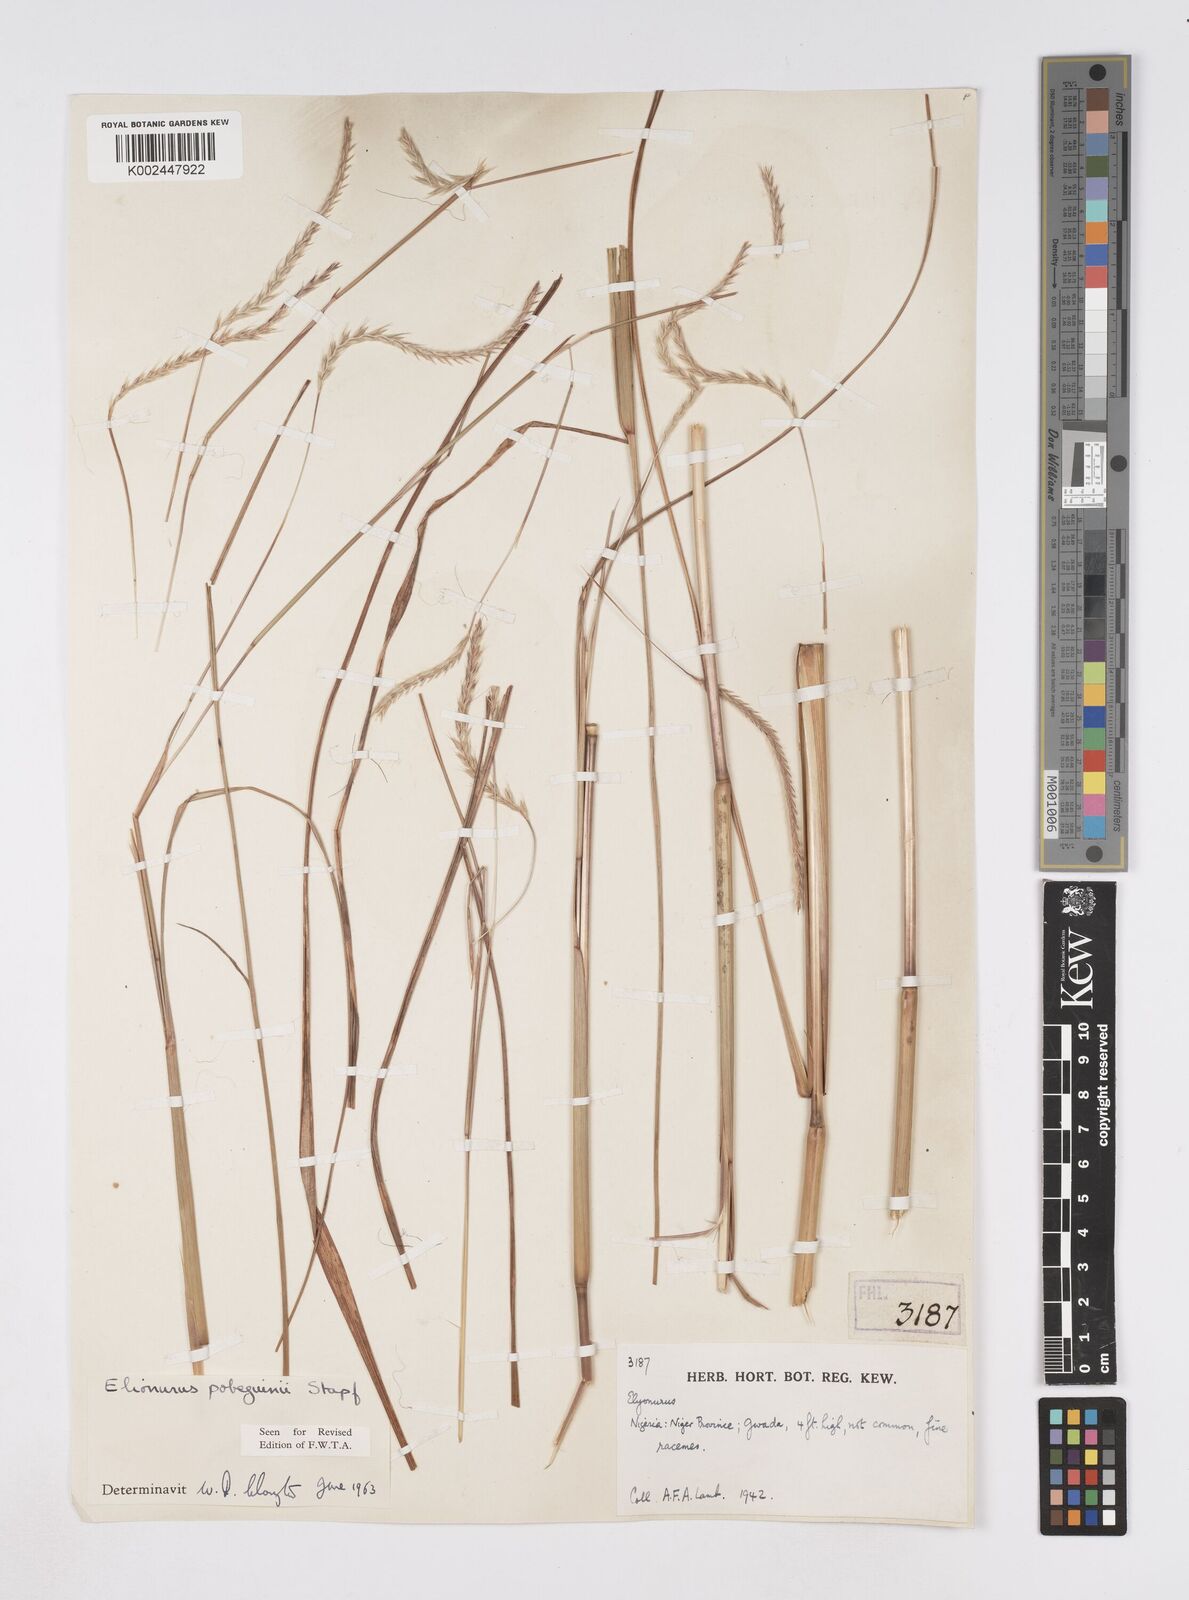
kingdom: Plantae
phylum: Tracheophyta
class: Liliopsida
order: Poales
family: Poaceae
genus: Elionurus
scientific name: Elionurus
